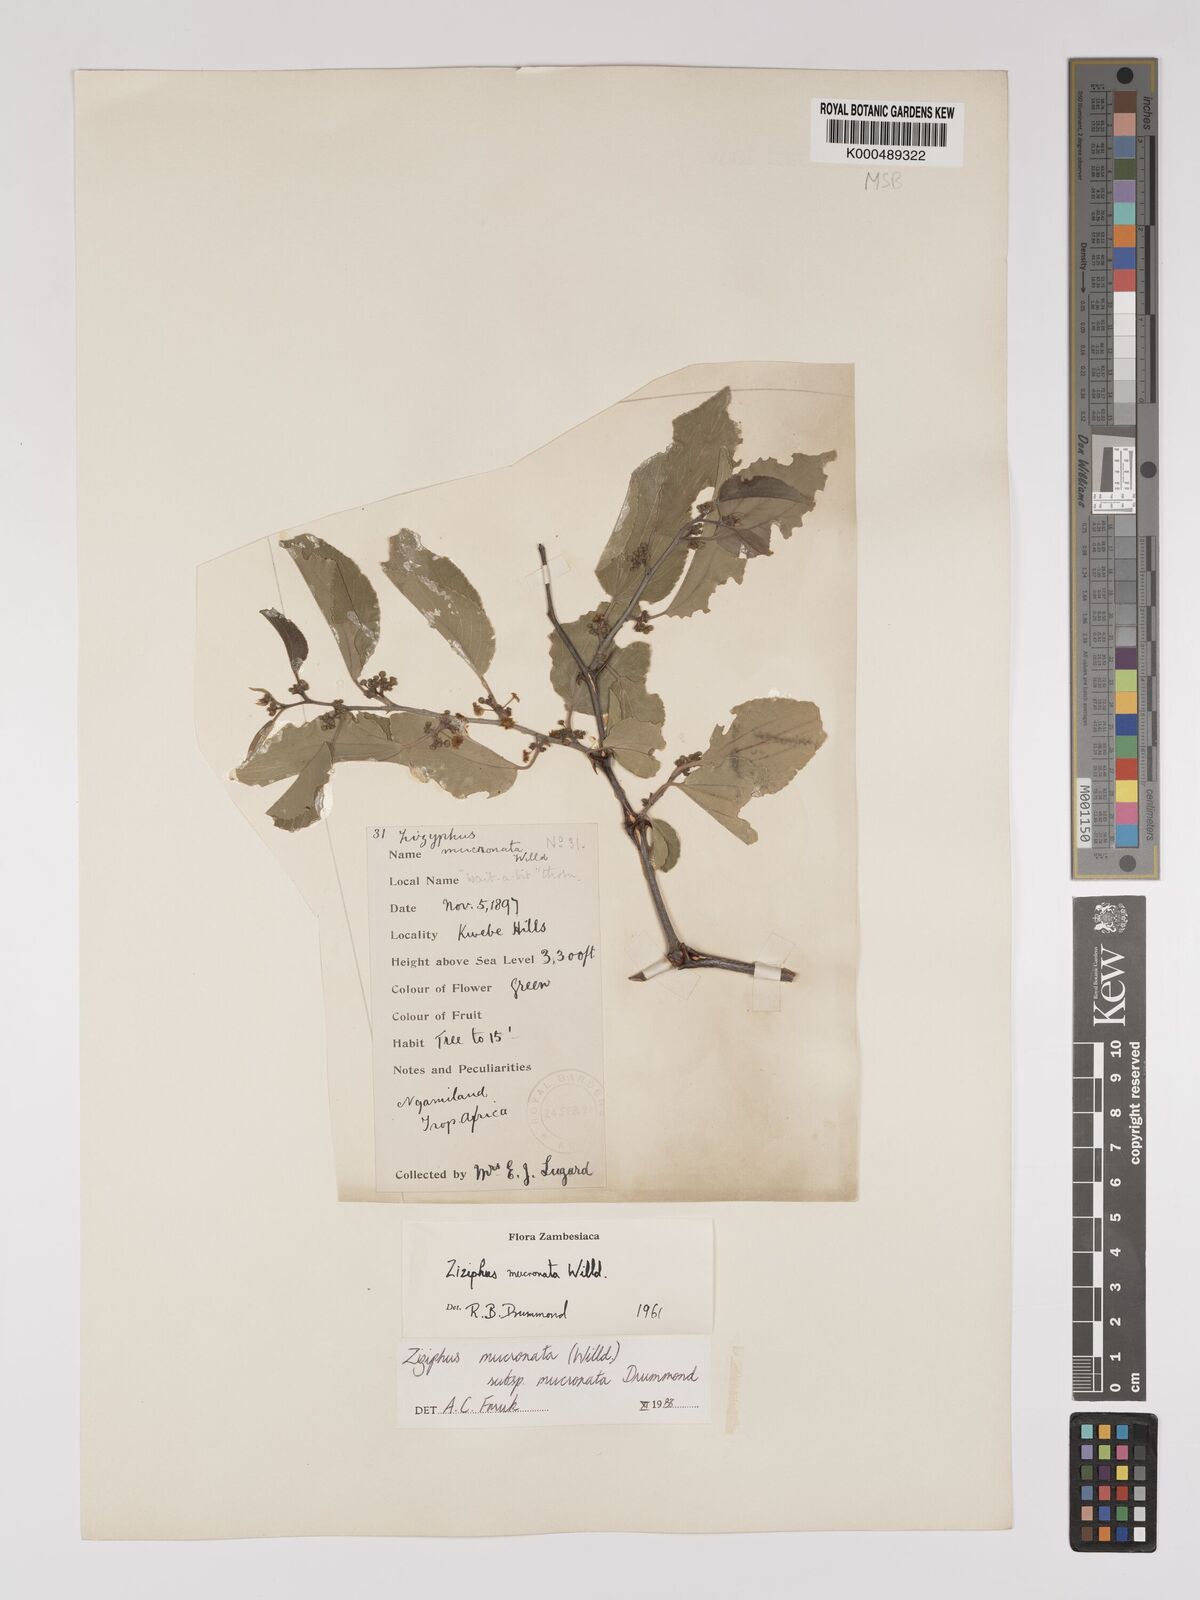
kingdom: Plantae
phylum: Tracheophyta
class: Magnoliopsida
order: Rosales
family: Rhamnaceae
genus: Ziziphus
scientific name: Ziziphus mucronata
